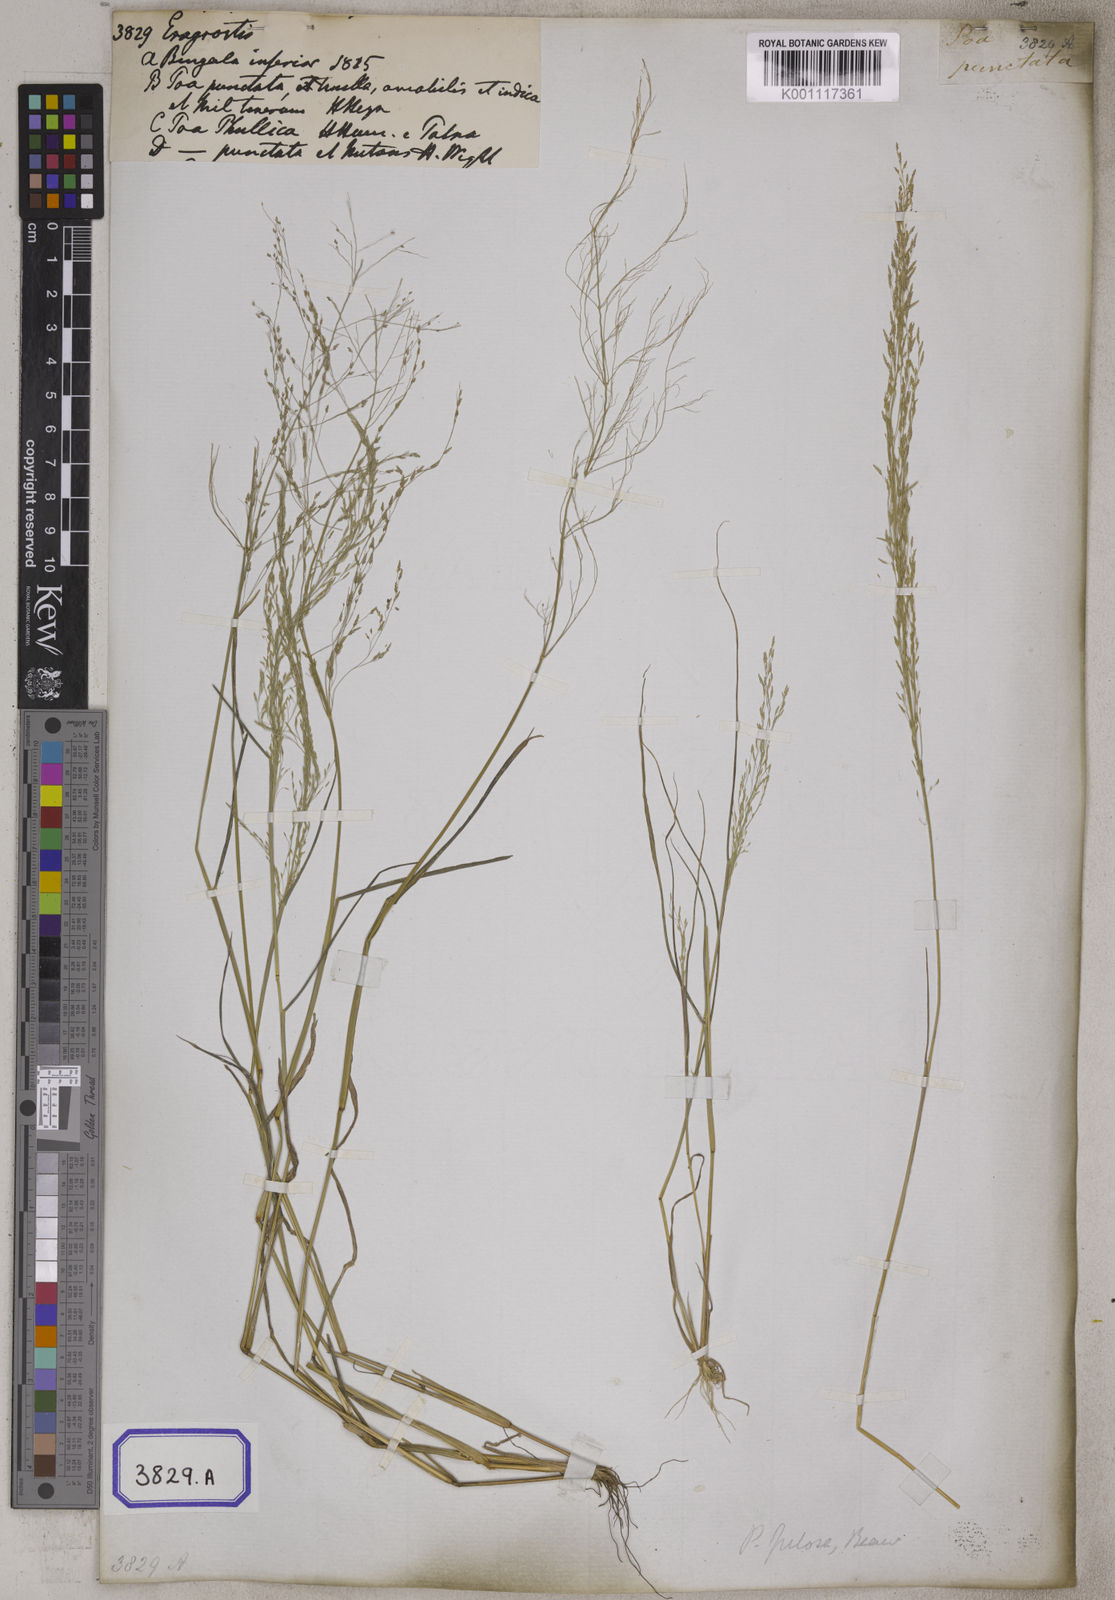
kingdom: Plantae
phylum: Tracheophyta
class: Liliopsida
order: Poales
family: Poaceae
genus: Eragrostis
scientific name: Eragrostis
